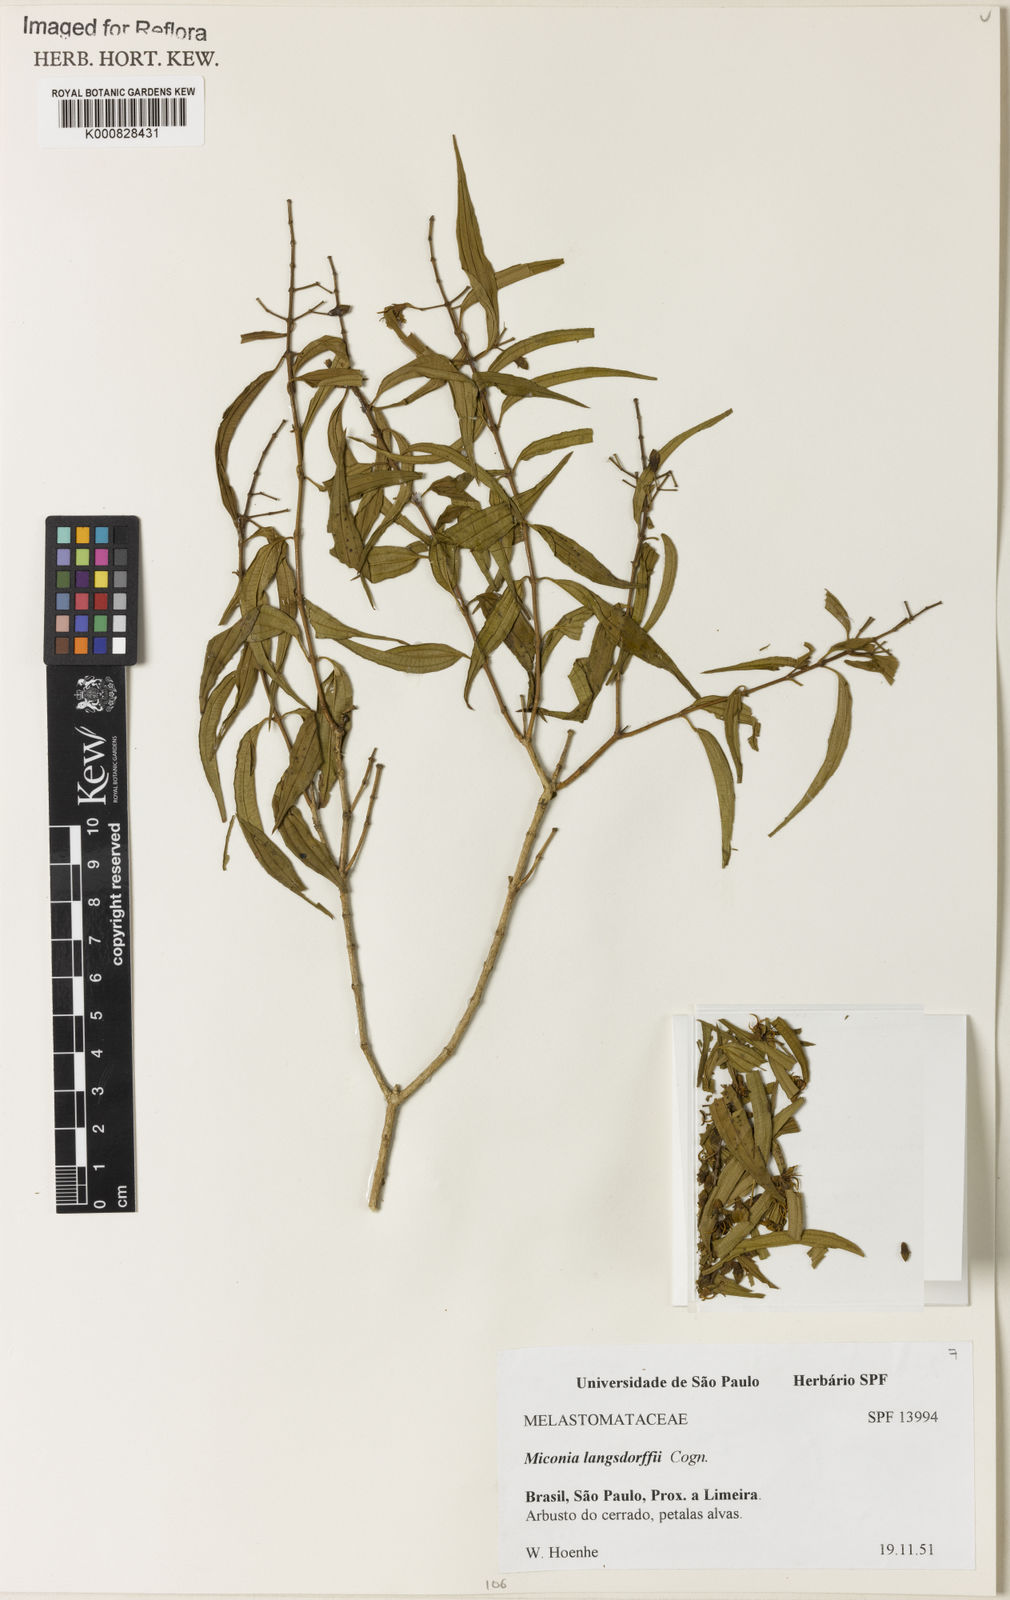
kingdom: Plantae
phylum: Tracheophyta
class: Magnoliopsida
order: Myrtales
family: Melastomataceae
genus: Miconia
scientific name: Miconia langsdorffii
